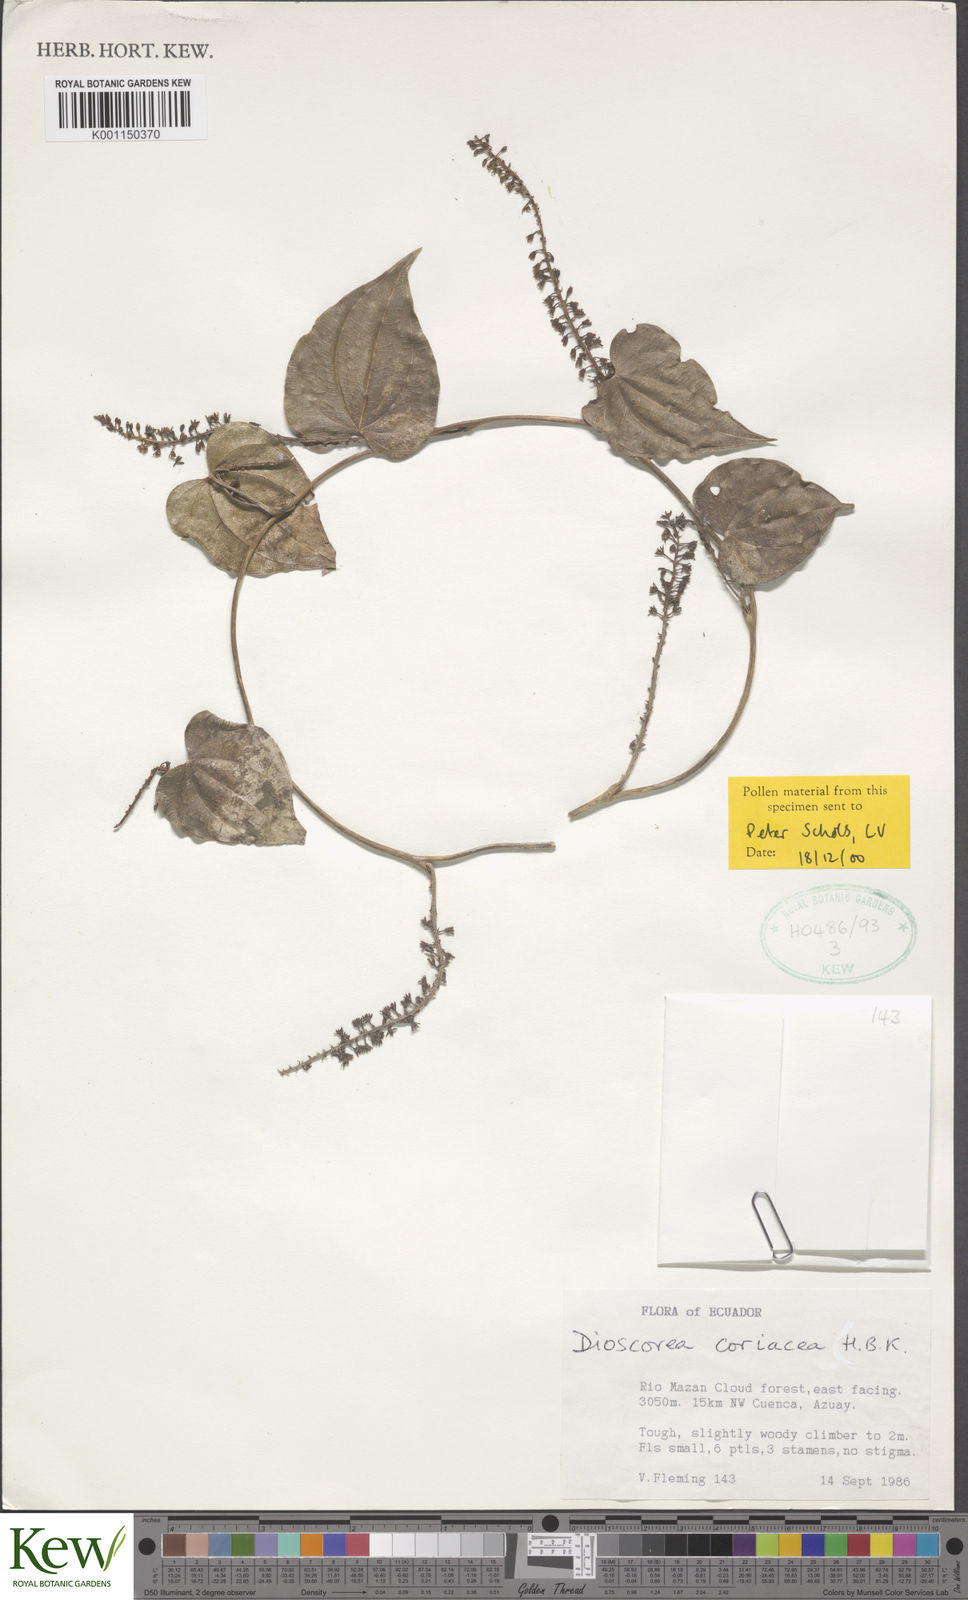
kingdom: Plantae
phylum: Tracheophyta
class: Liliopsida
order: Dioscoreales
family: Dioscoreaceae
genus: Dioscorea
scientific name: Dioscorea coriacea
